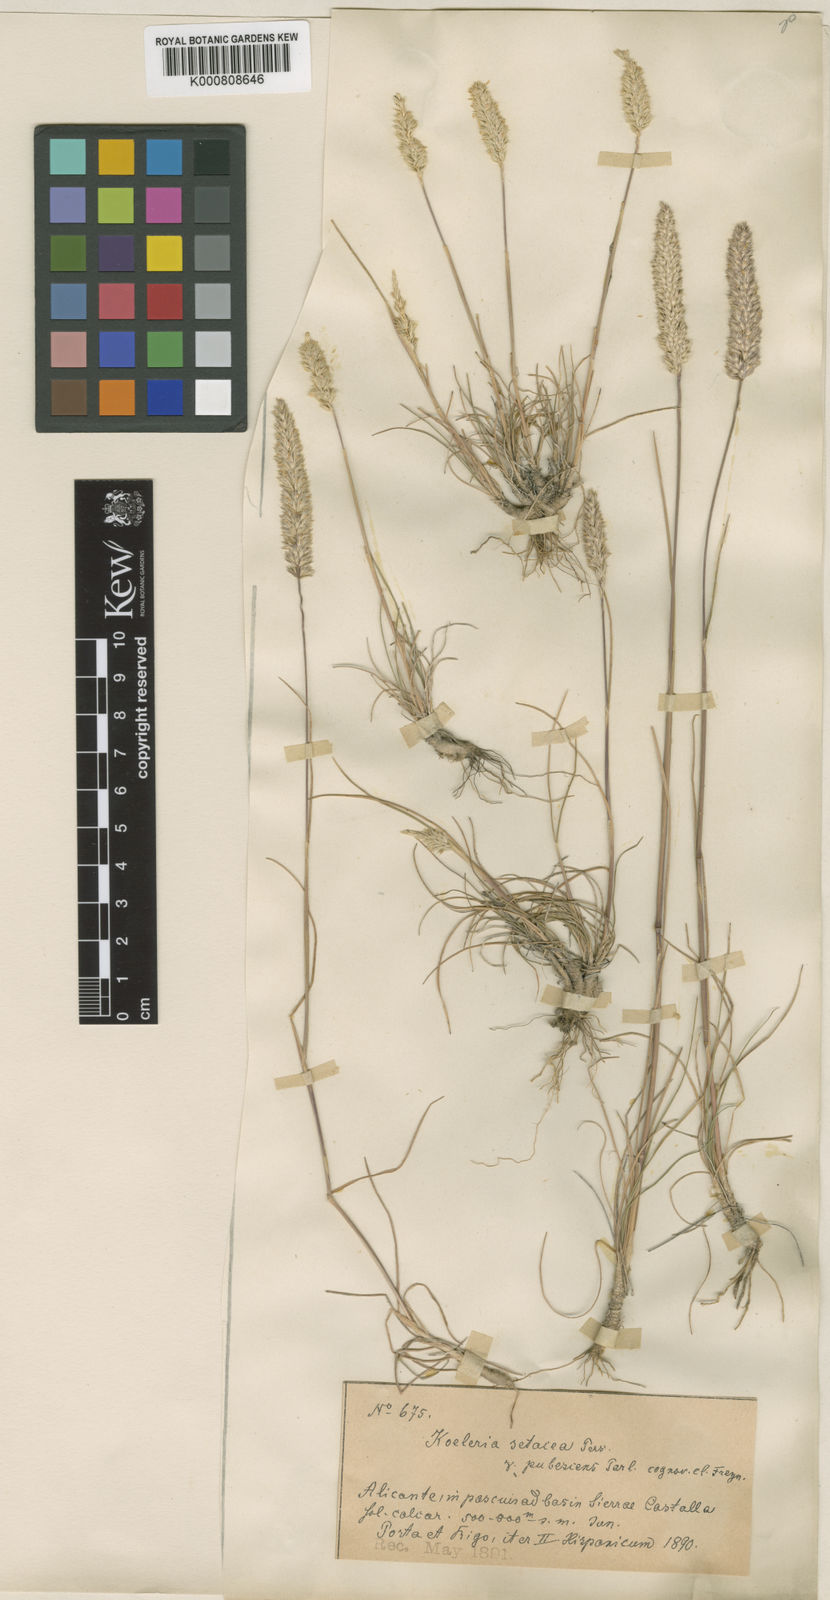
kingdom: Plantae
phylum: Tracheophyta
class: Liliopsida
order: Poales
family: Poaceae
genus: Koeleria
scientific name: Koeleria
